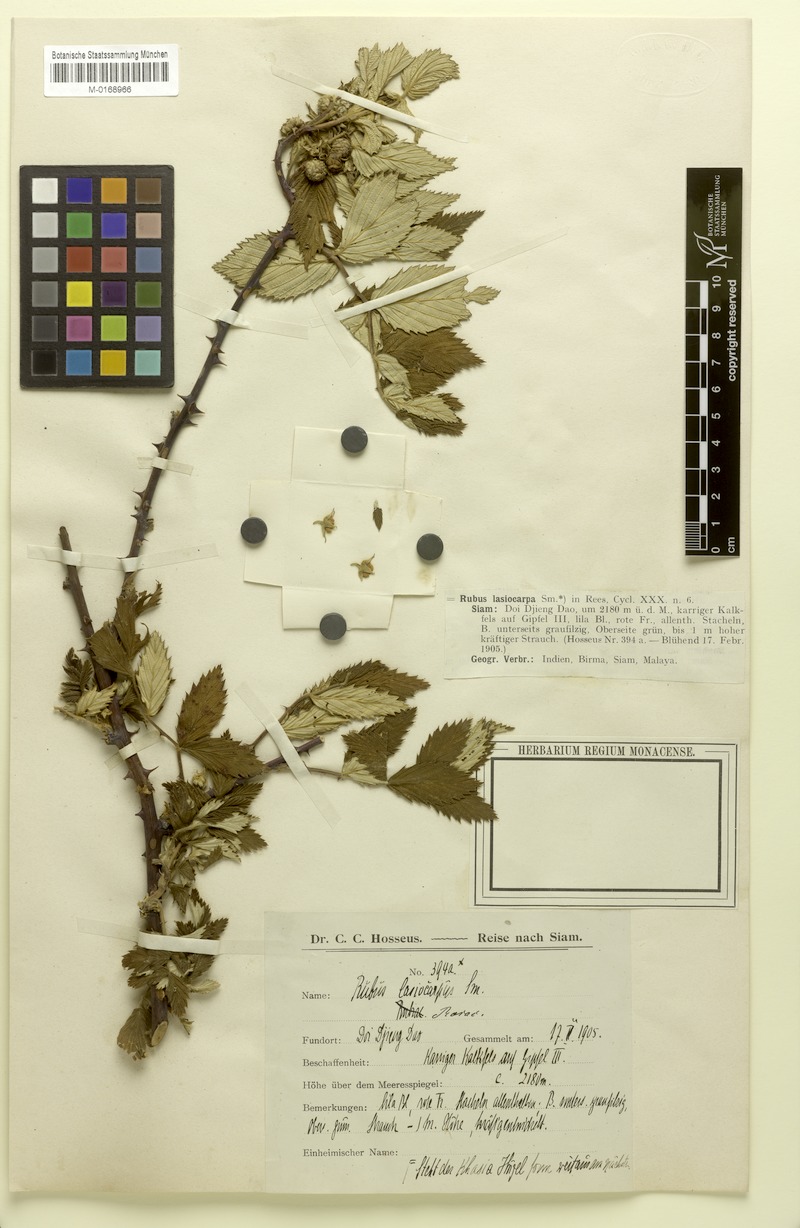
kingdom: Plantae
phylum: Tracheophyta
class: Magnoliopsida
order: Rosales
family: Rosaceae
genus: Rubus
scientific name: Rubus niveus
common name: Snowpeaks raspberry
